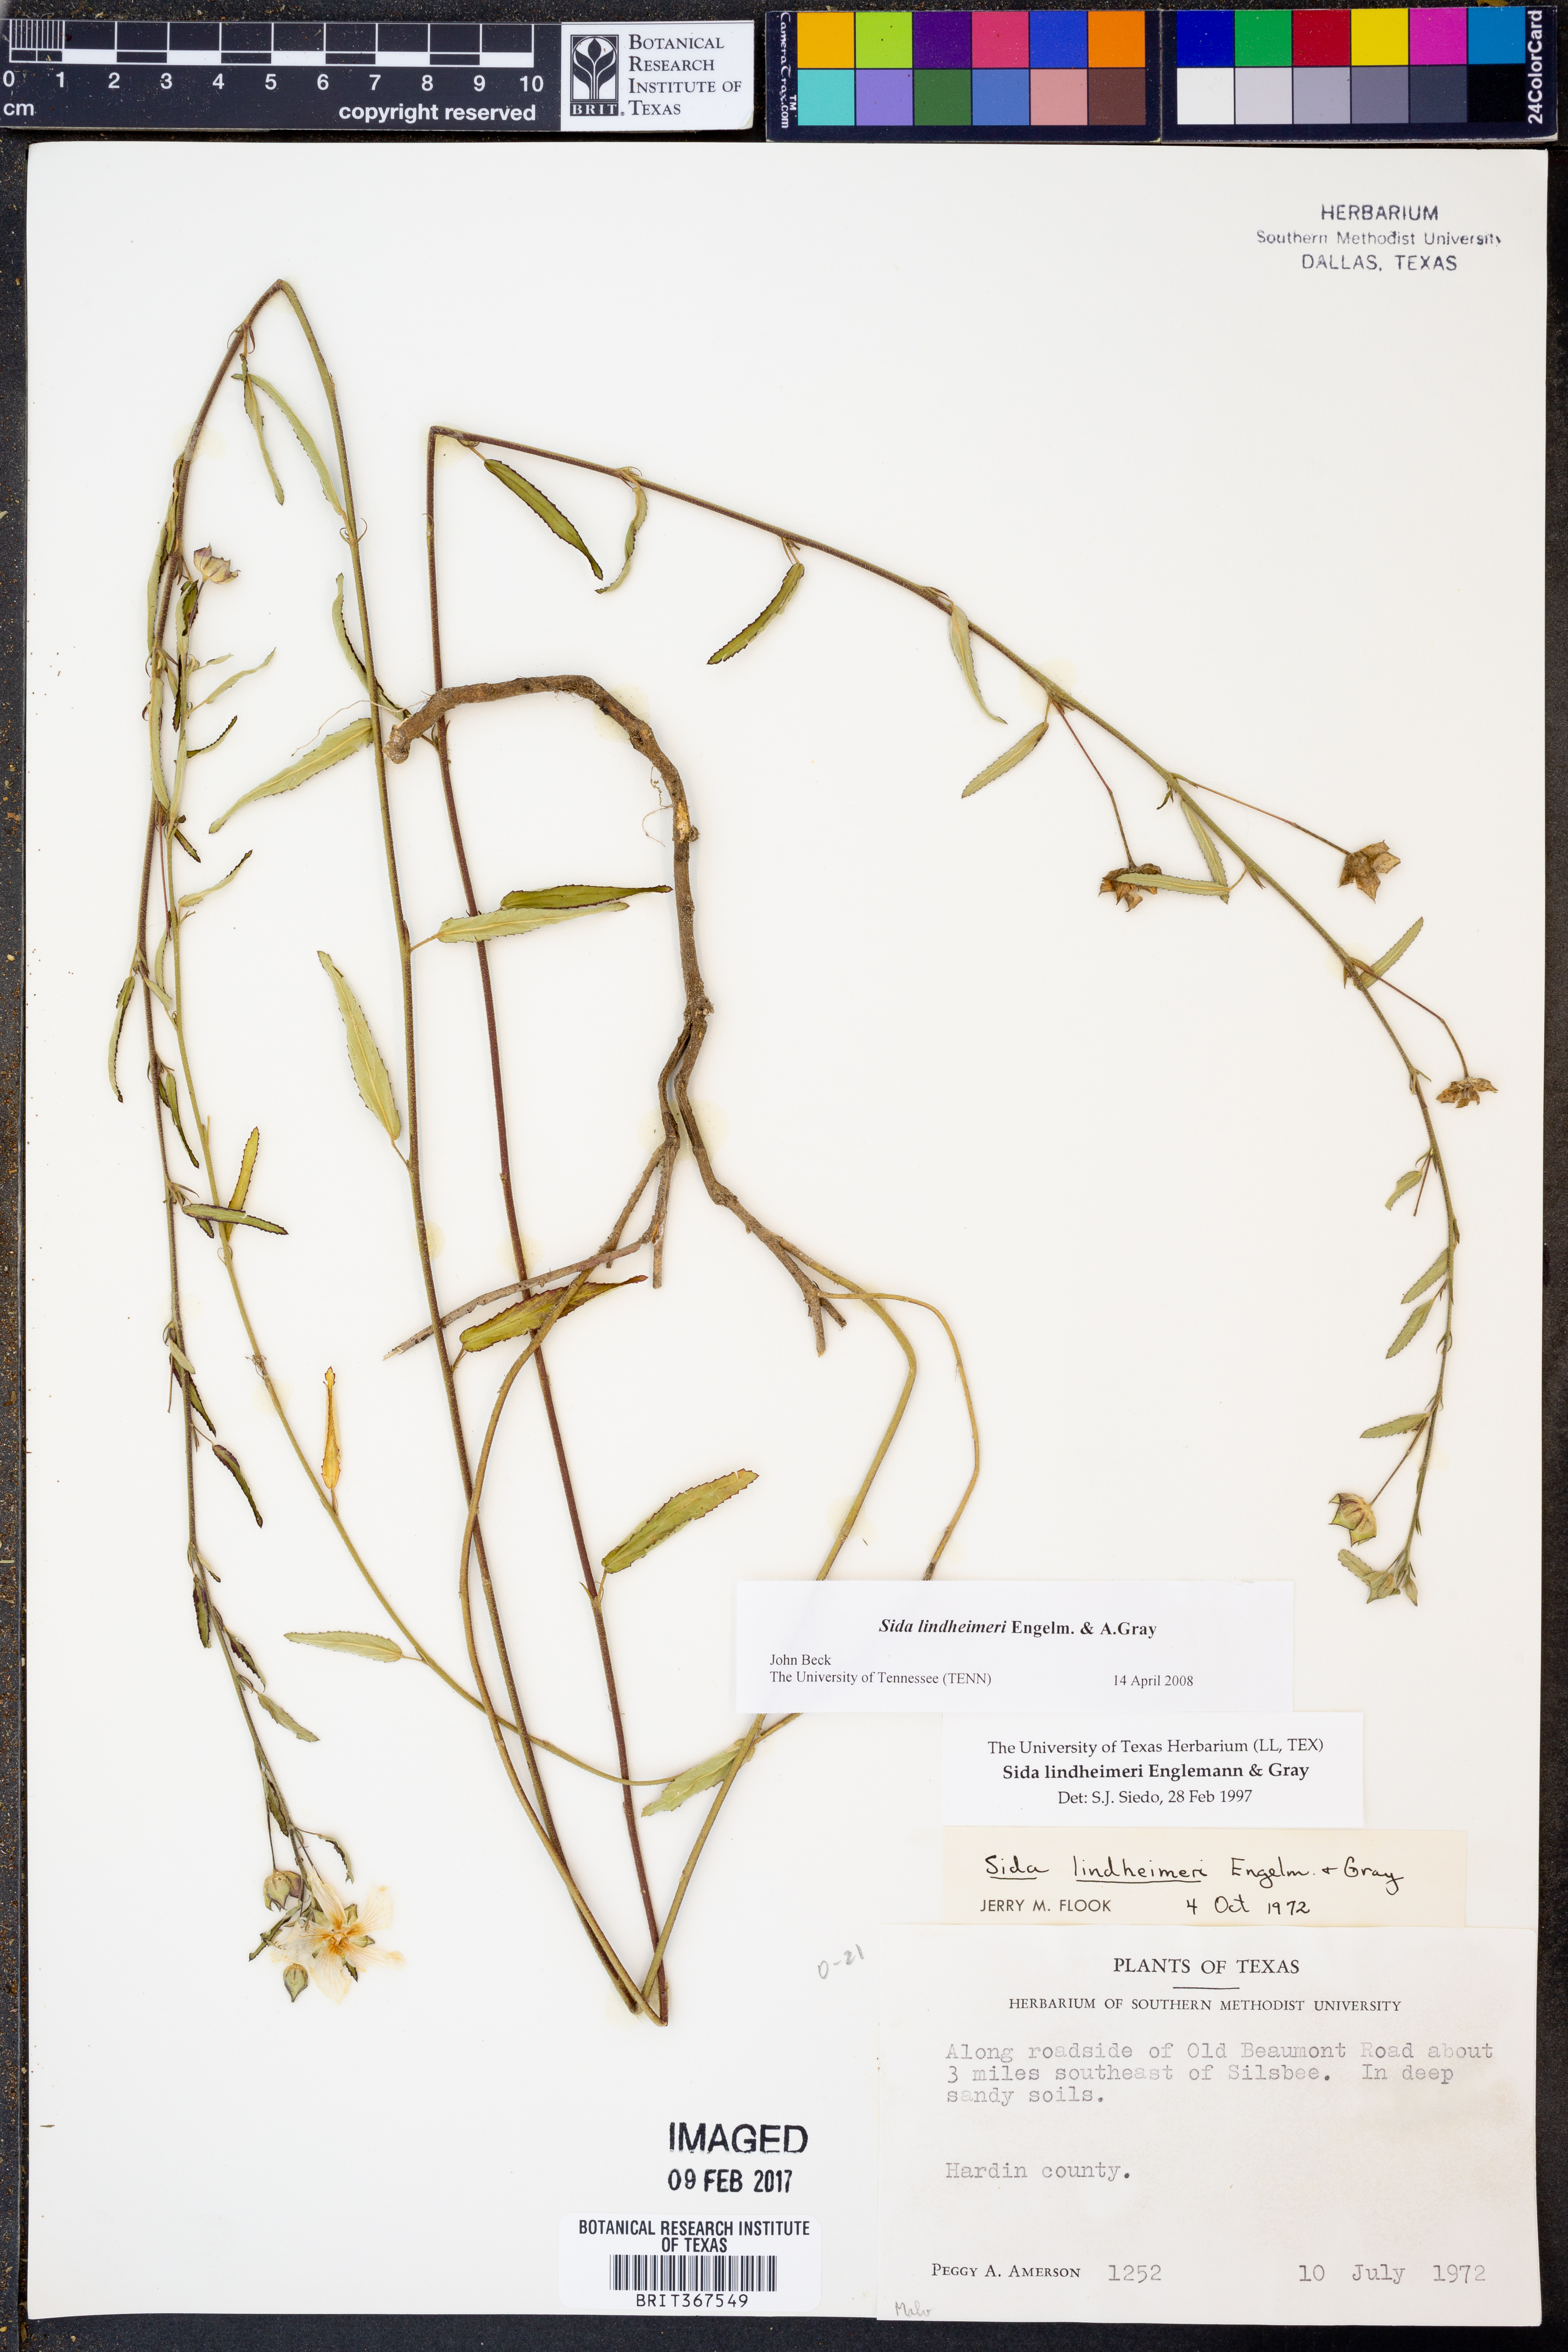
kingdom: Plantae
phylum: Tracheophyta
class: Magnoliopsida
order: Malvales
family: Malvaceae
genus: Sida
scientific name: Sida lindheimeri
